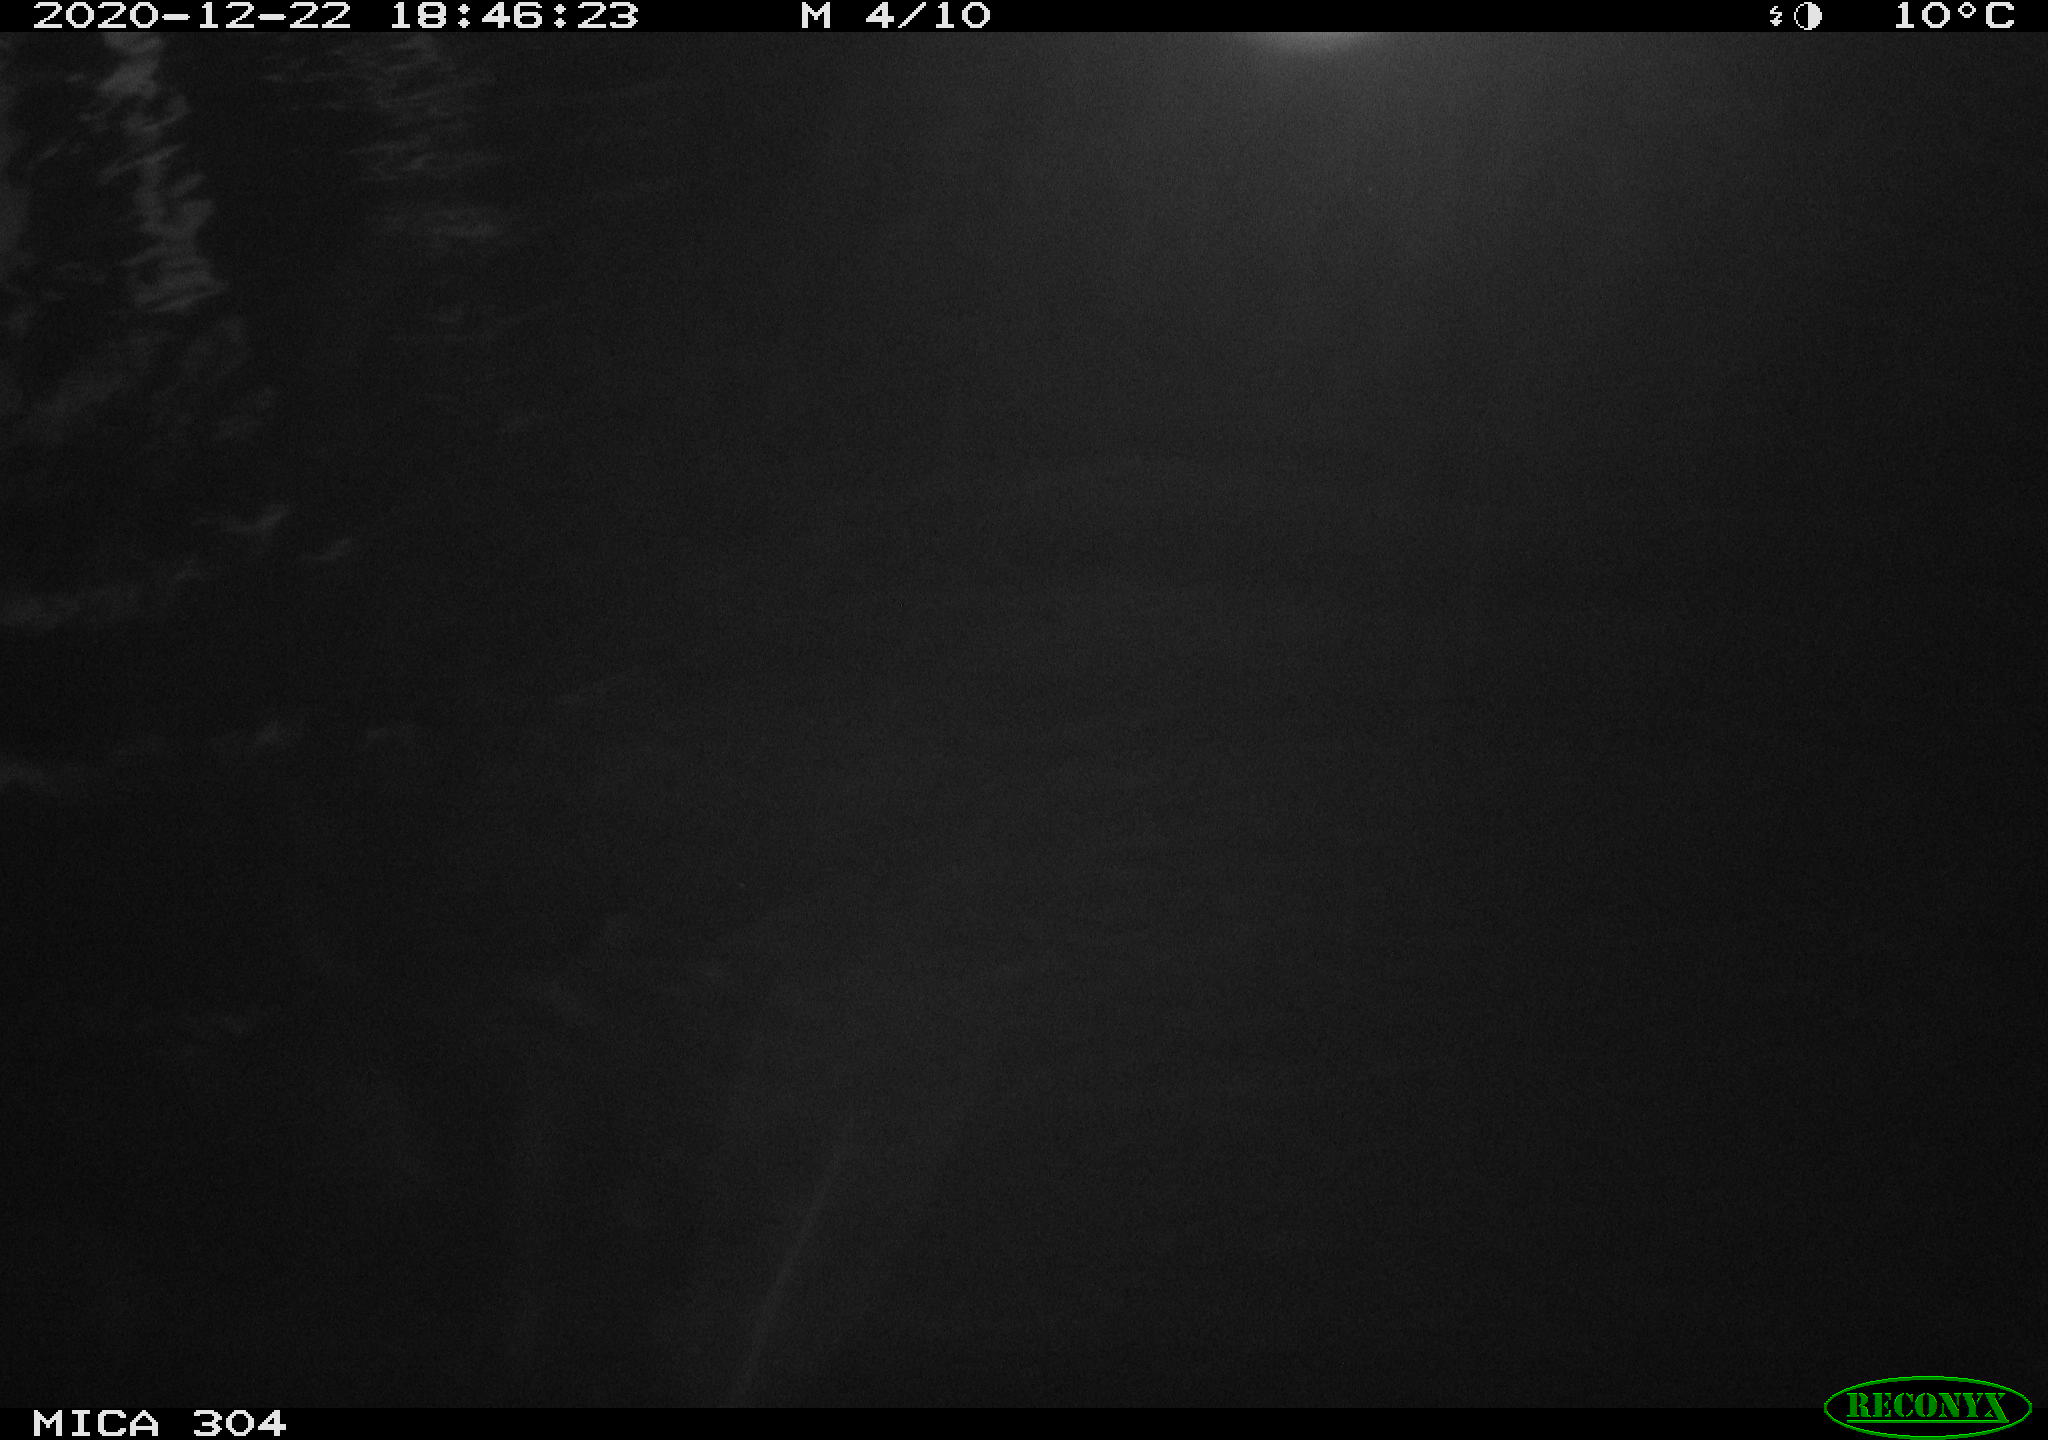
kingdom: Animalia
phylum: Chordata
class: Mammalia
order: Rodentia
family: Cricetidae
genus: Ondatra
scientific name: Ondatra zibethicus
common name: Muskrat
